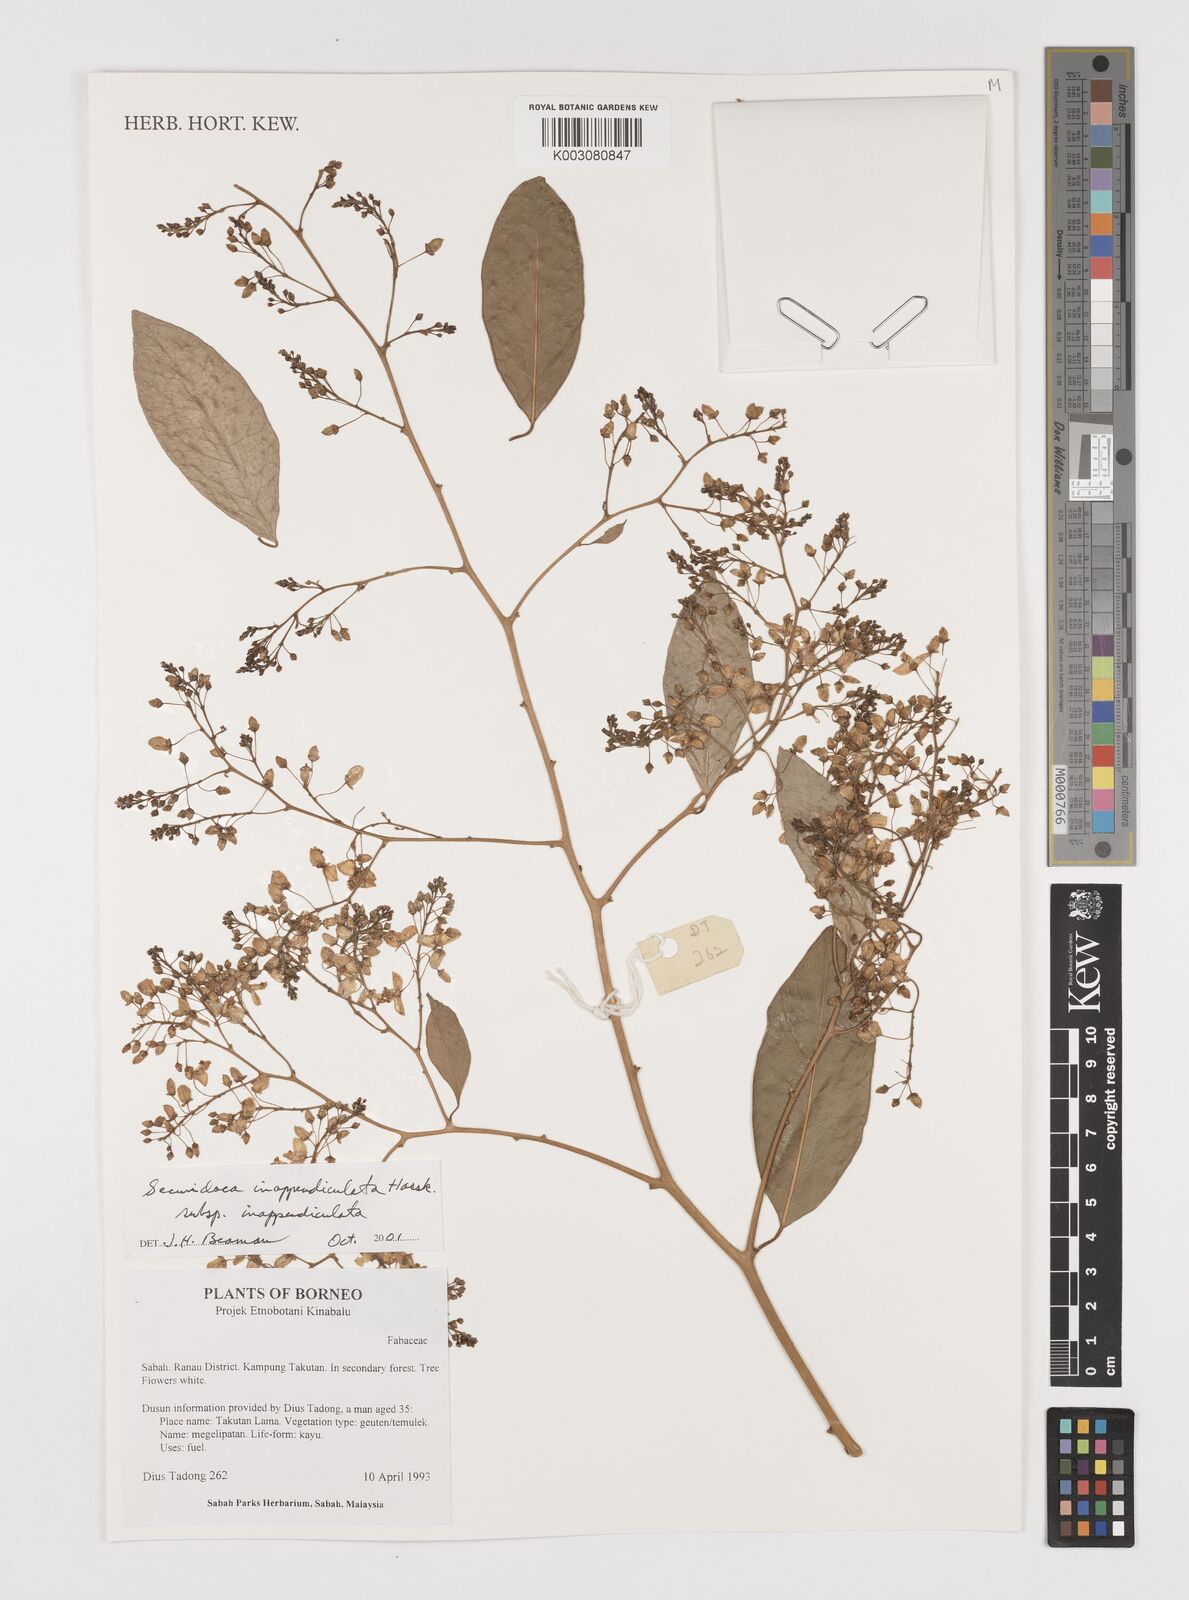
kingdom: Plantae
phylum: Tracheophyta
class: Magnoliopsida
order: Fabales
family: Polygalaceae
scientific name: Polygalaceae
